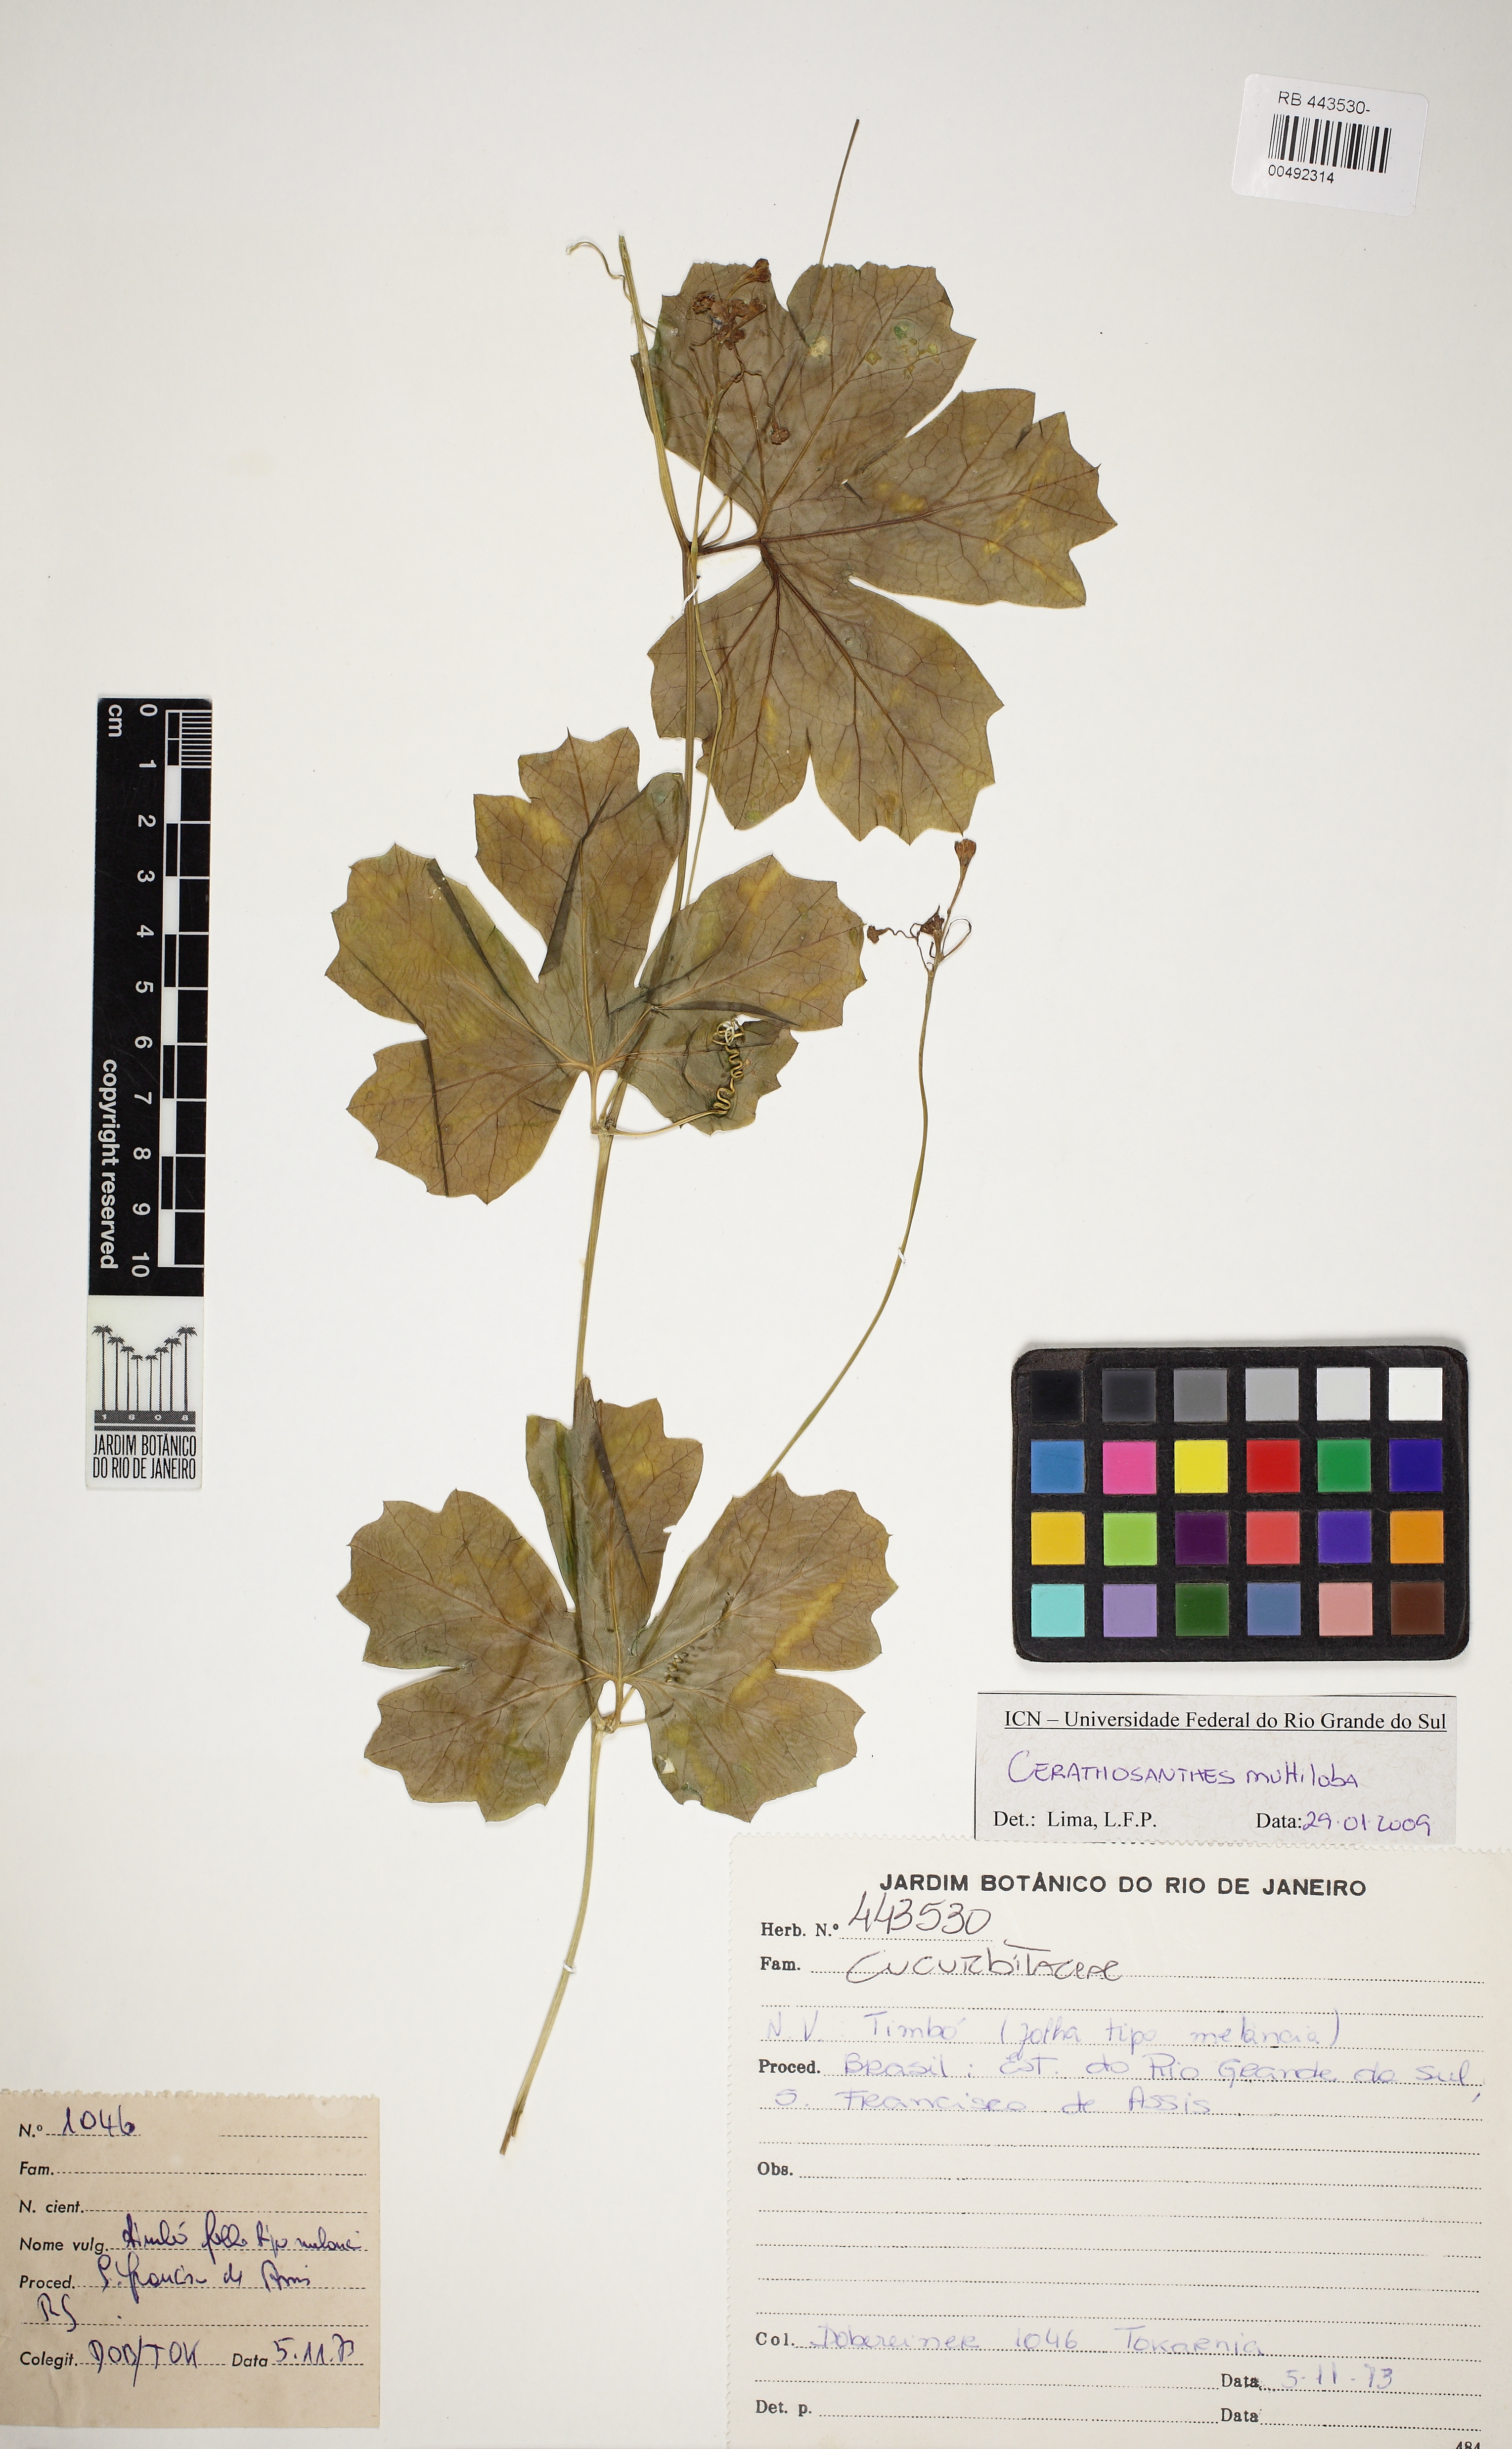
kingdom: Plantae
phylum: Tracheophyta
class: Magnoliopsida
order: Cucurbitales
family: Cucurbitaceae
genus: Ceratosanthes
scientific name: Ceratosanthes multiloba
